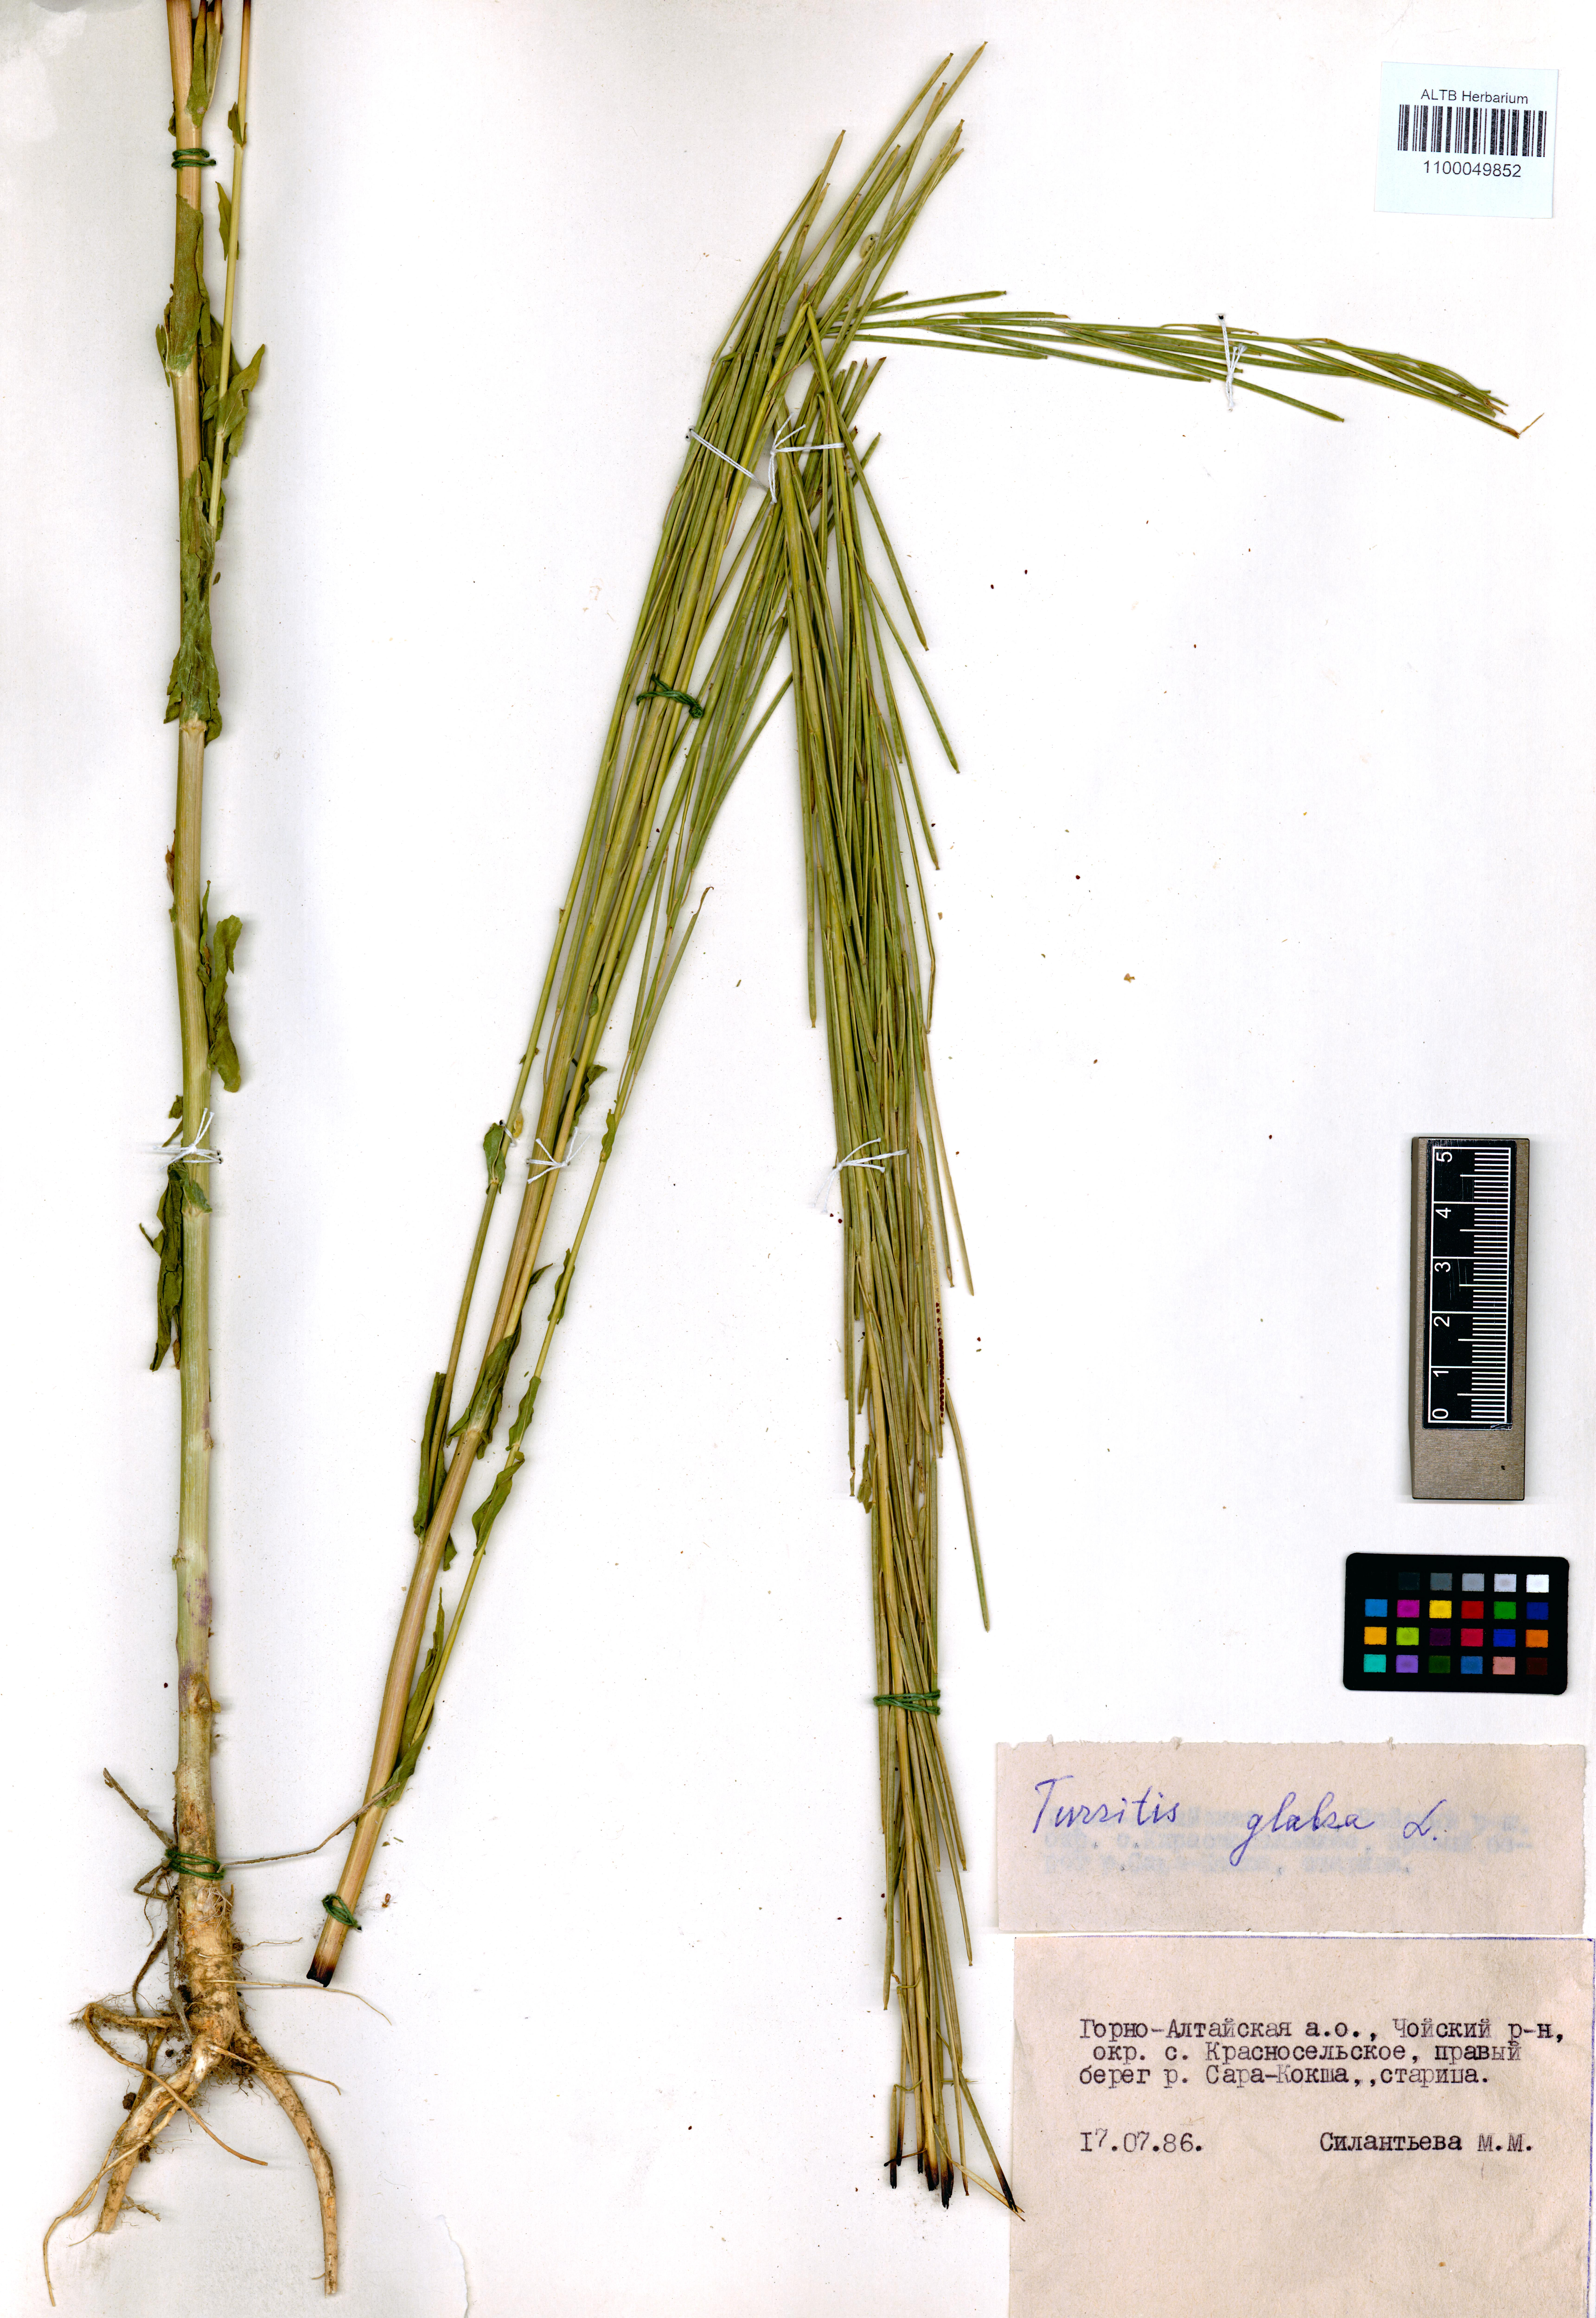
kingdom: Plantae
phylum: Tracheophyta
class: Magnoliopsida
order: Brassicales
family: Brassicaceae
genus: Turritis
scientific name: Turritis glabra
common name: Tower rockcress
